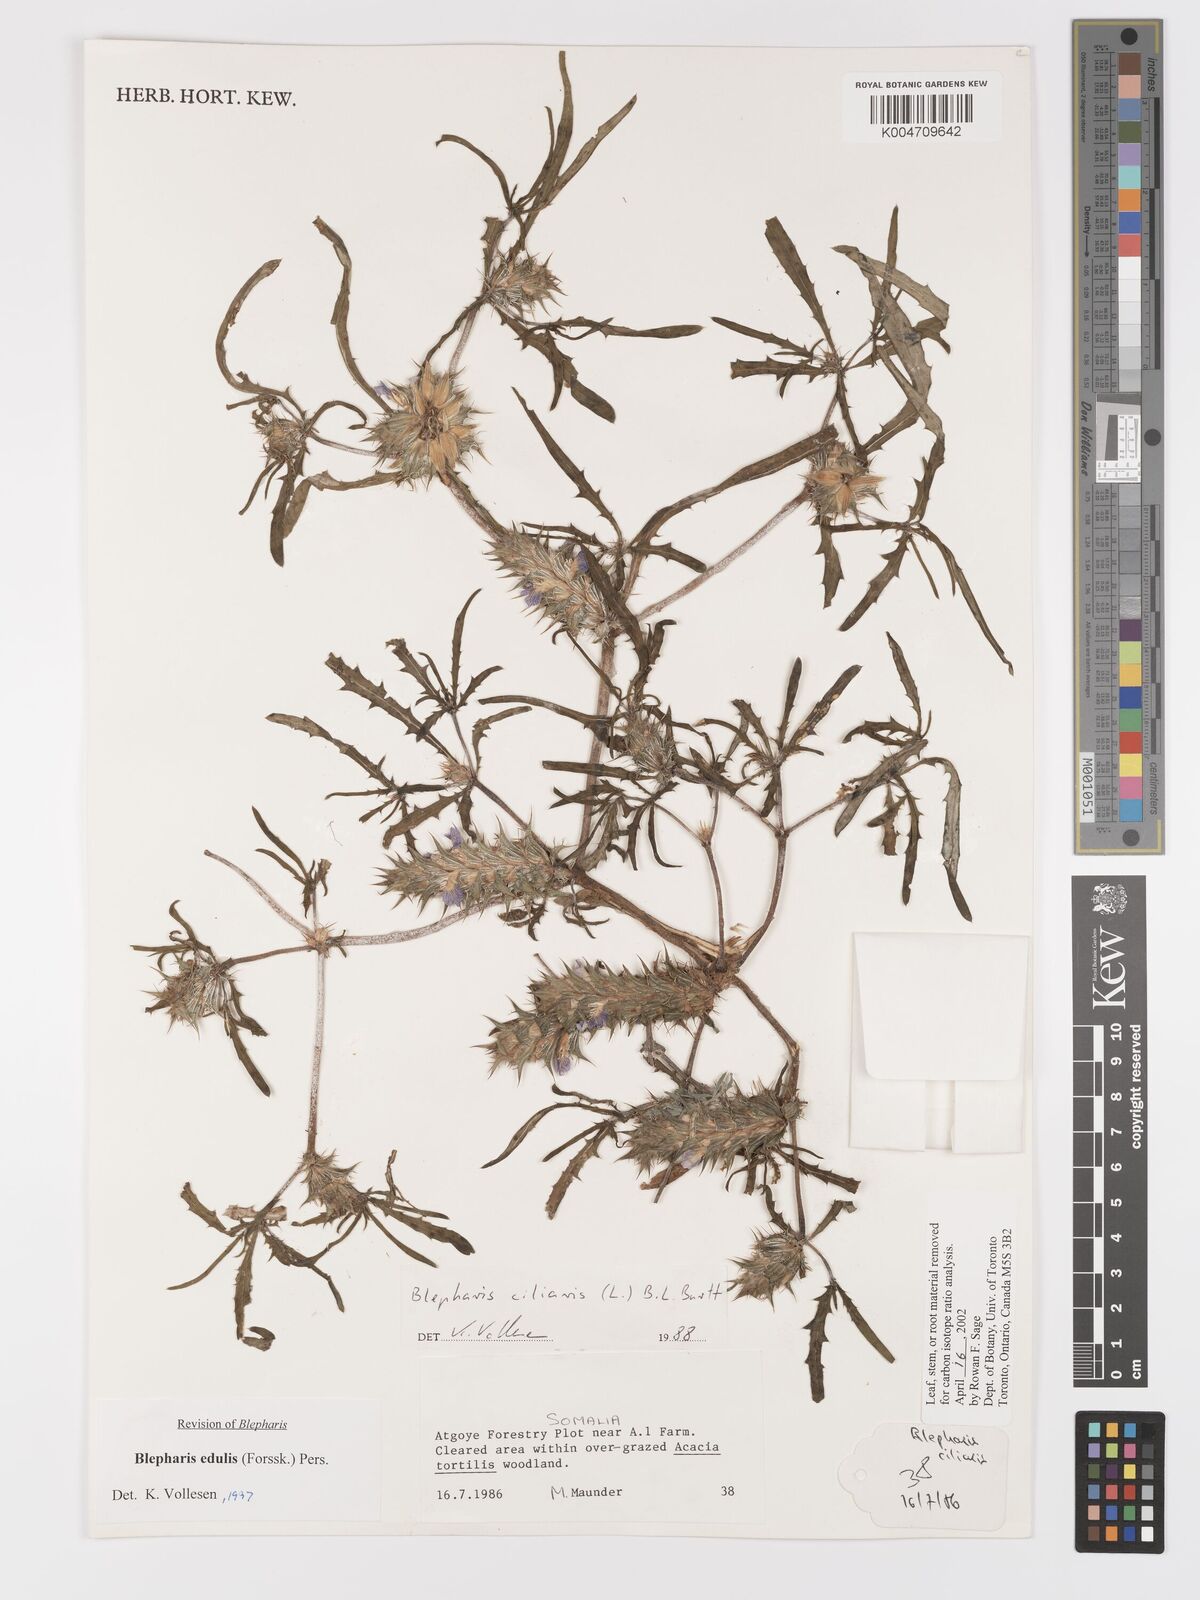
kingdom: Plantae
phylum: Tracheophyta
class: Magnoliopsida
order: Lamiales
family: Acanthaceae
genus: Blepharis
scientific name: Blepharis edulis
